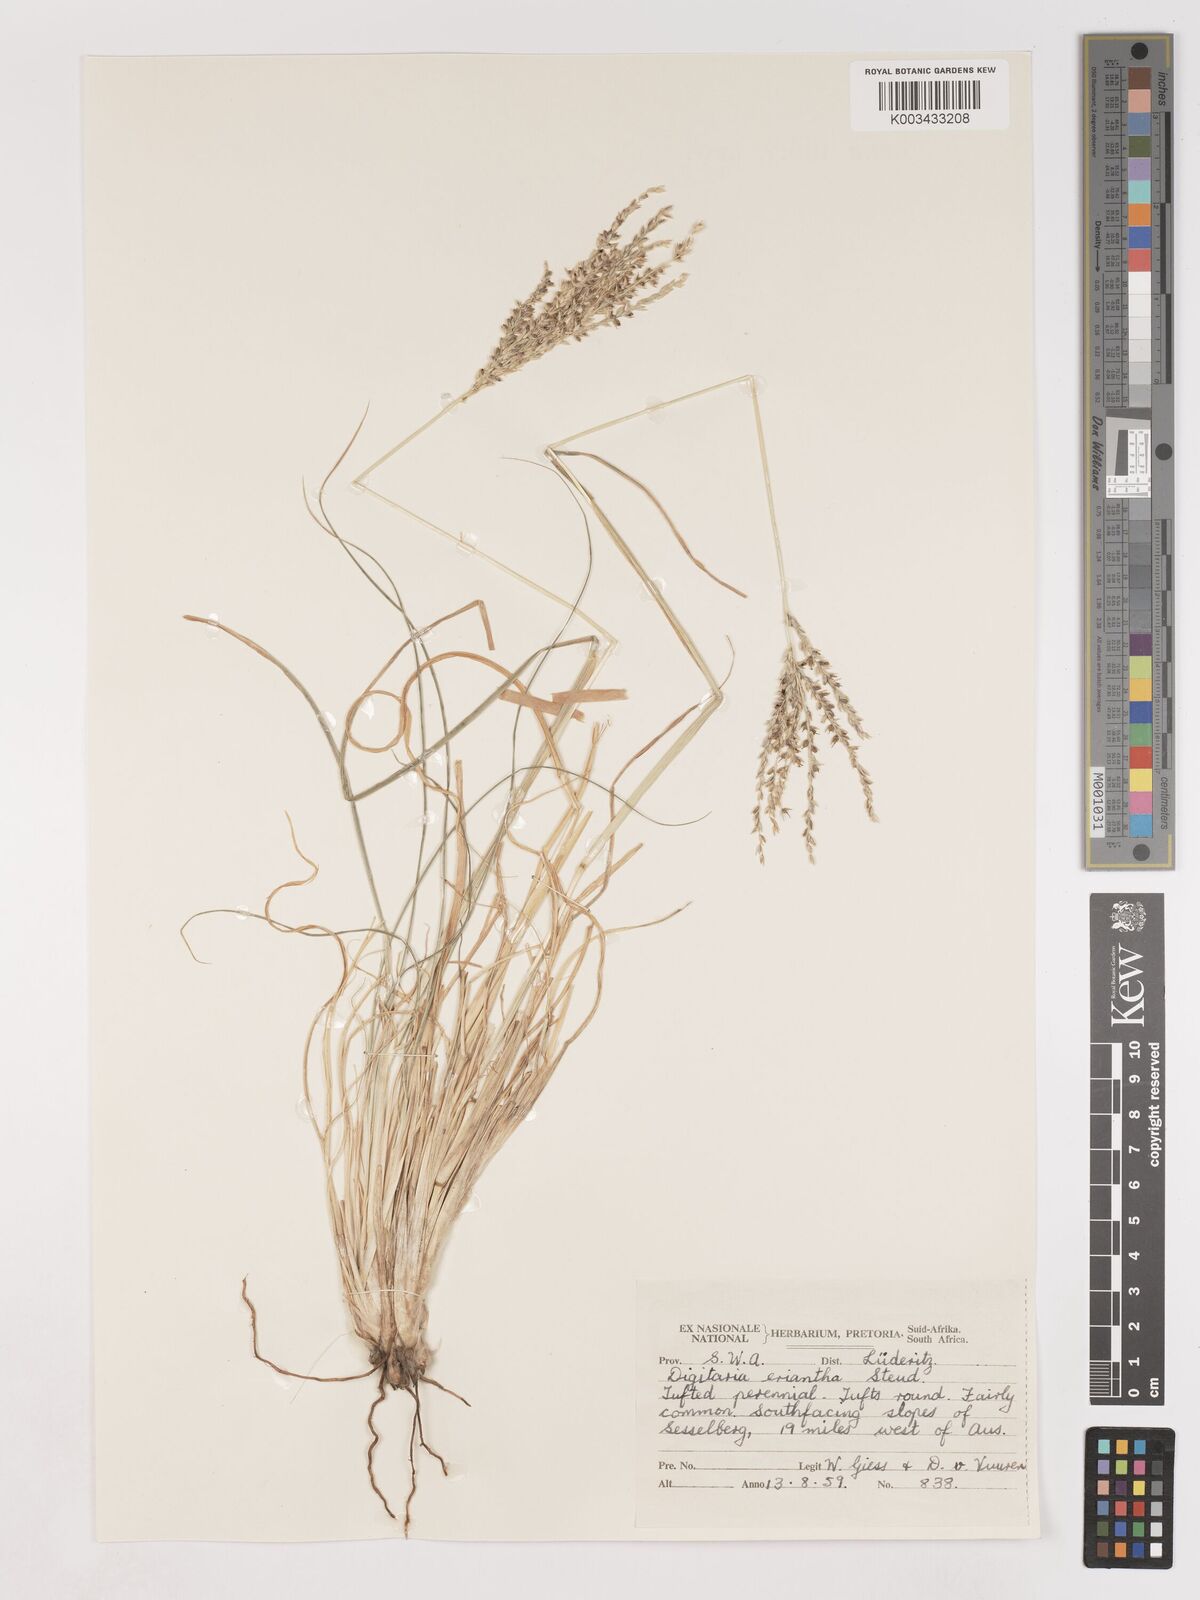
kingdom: Plantae
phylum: Tracheophyta
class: Liliopsida
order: Poales
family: Poaceae
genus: Digitaria
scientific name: Digitaria eriantha
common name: Digitgrass
